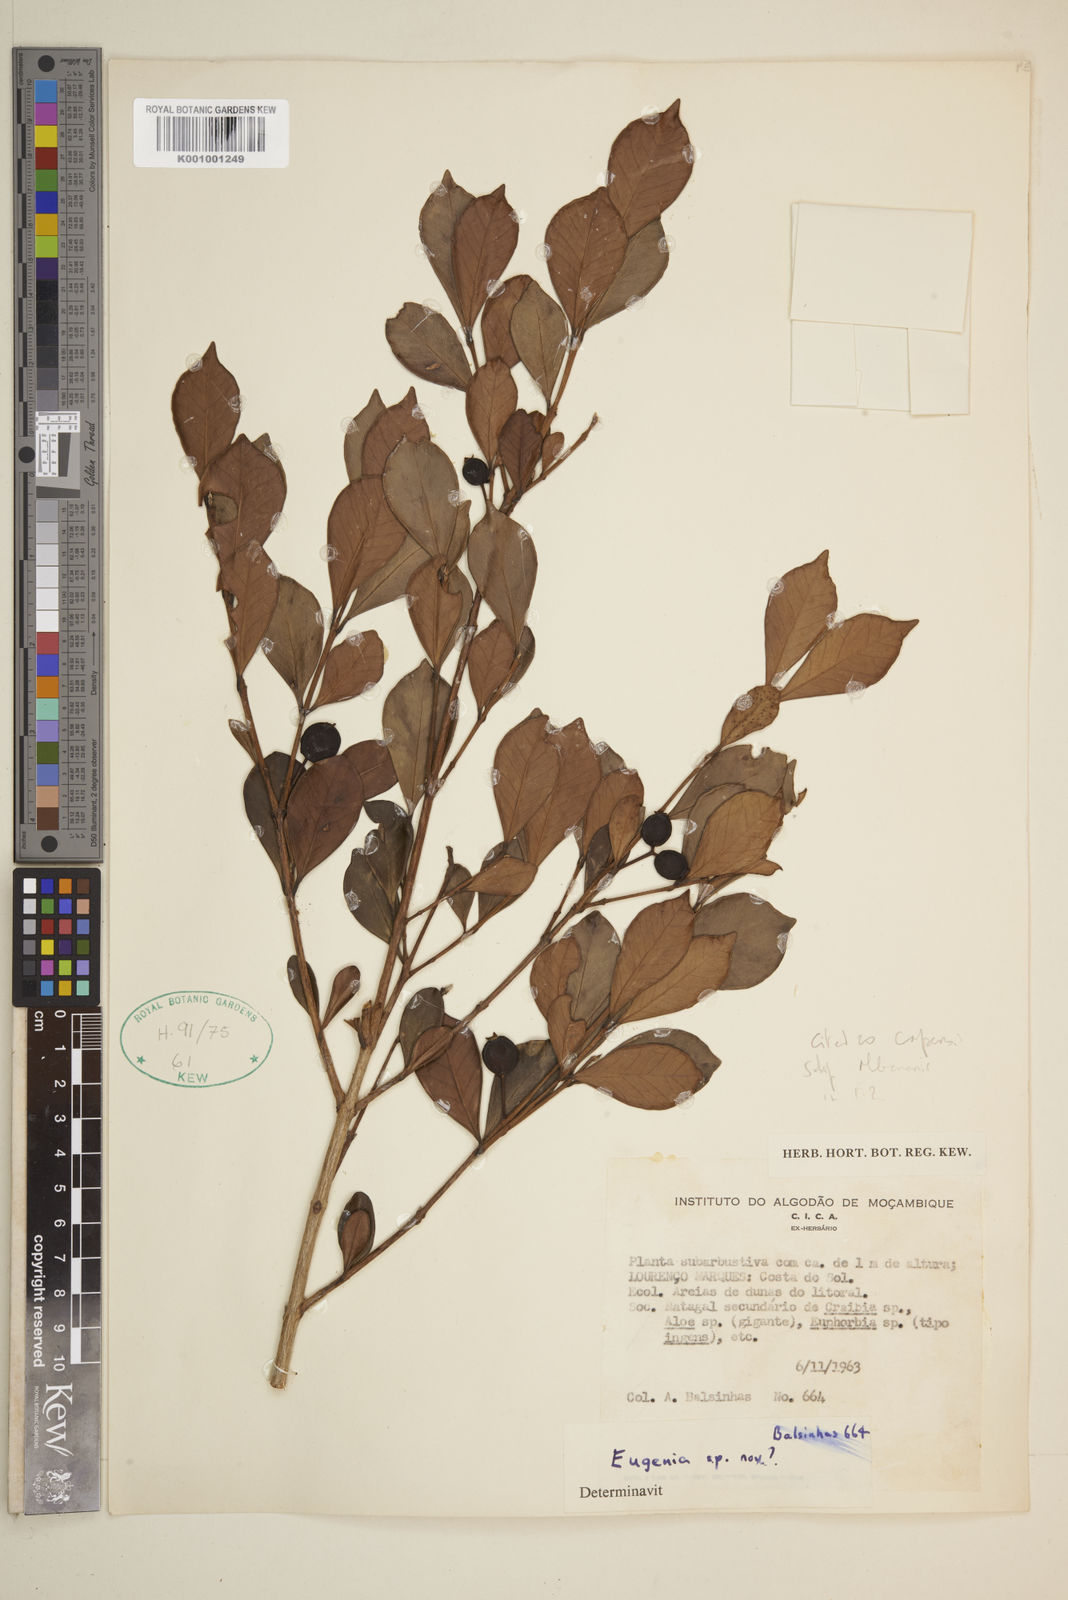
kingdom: Plantae
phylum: Tracheophyta
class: Magnoliopsida
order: Myrtales
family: Myrtaceae
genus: Eugenia
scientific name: Eugenia capensis
